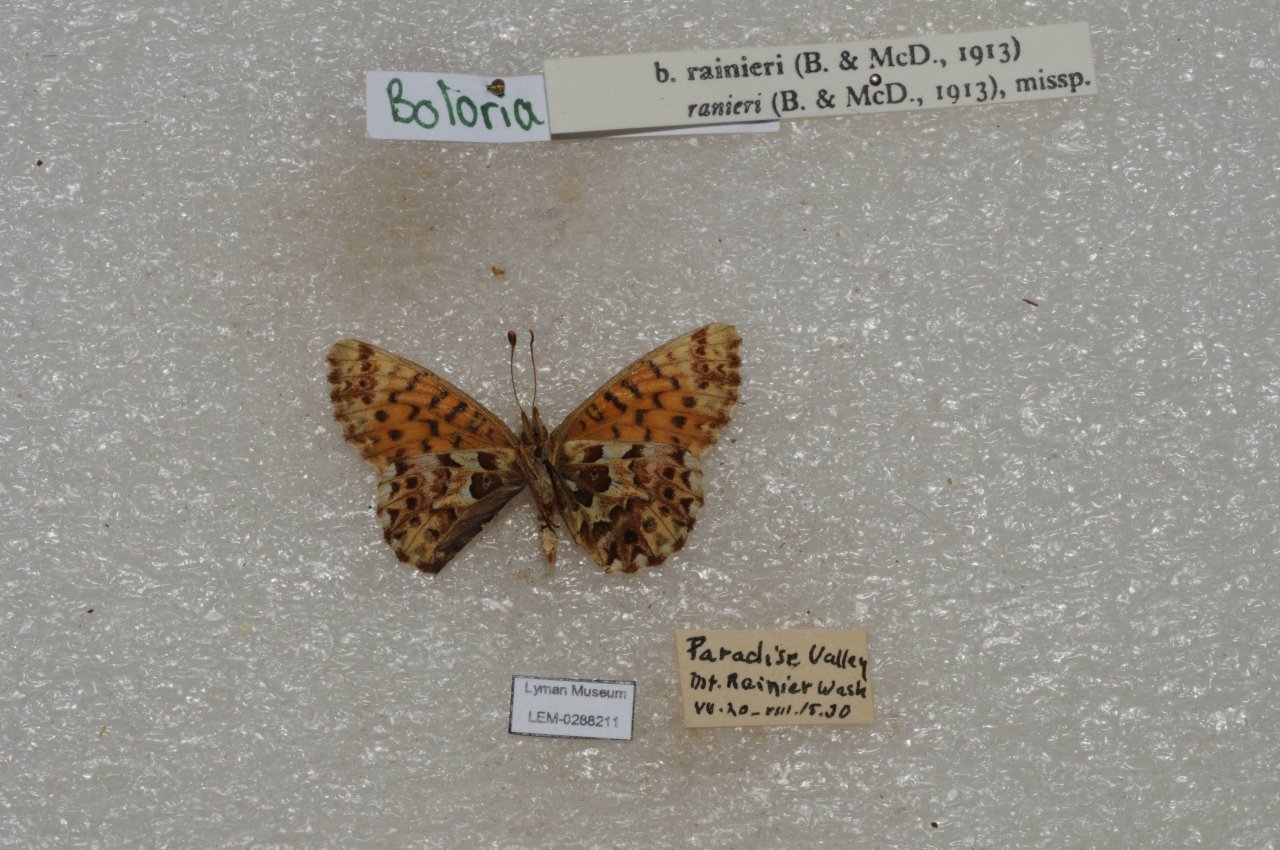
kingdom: Animalia
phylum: Arthropoda
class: Insecta
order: Lepidoptera
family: Nymphalidae
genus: Boloria
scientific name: Boloria chariclea
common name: Arctic Fritillary
